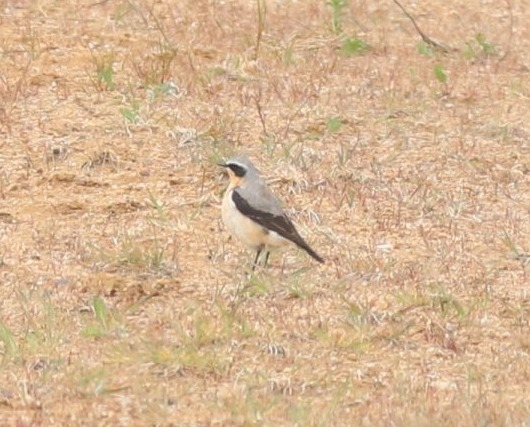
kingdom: Animalia
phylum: Chordata
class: Aves
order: Passeriformes
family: Muscicapidae
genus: Oenanthe
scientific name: Oenanthe oenanthe
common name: Stenpikker
